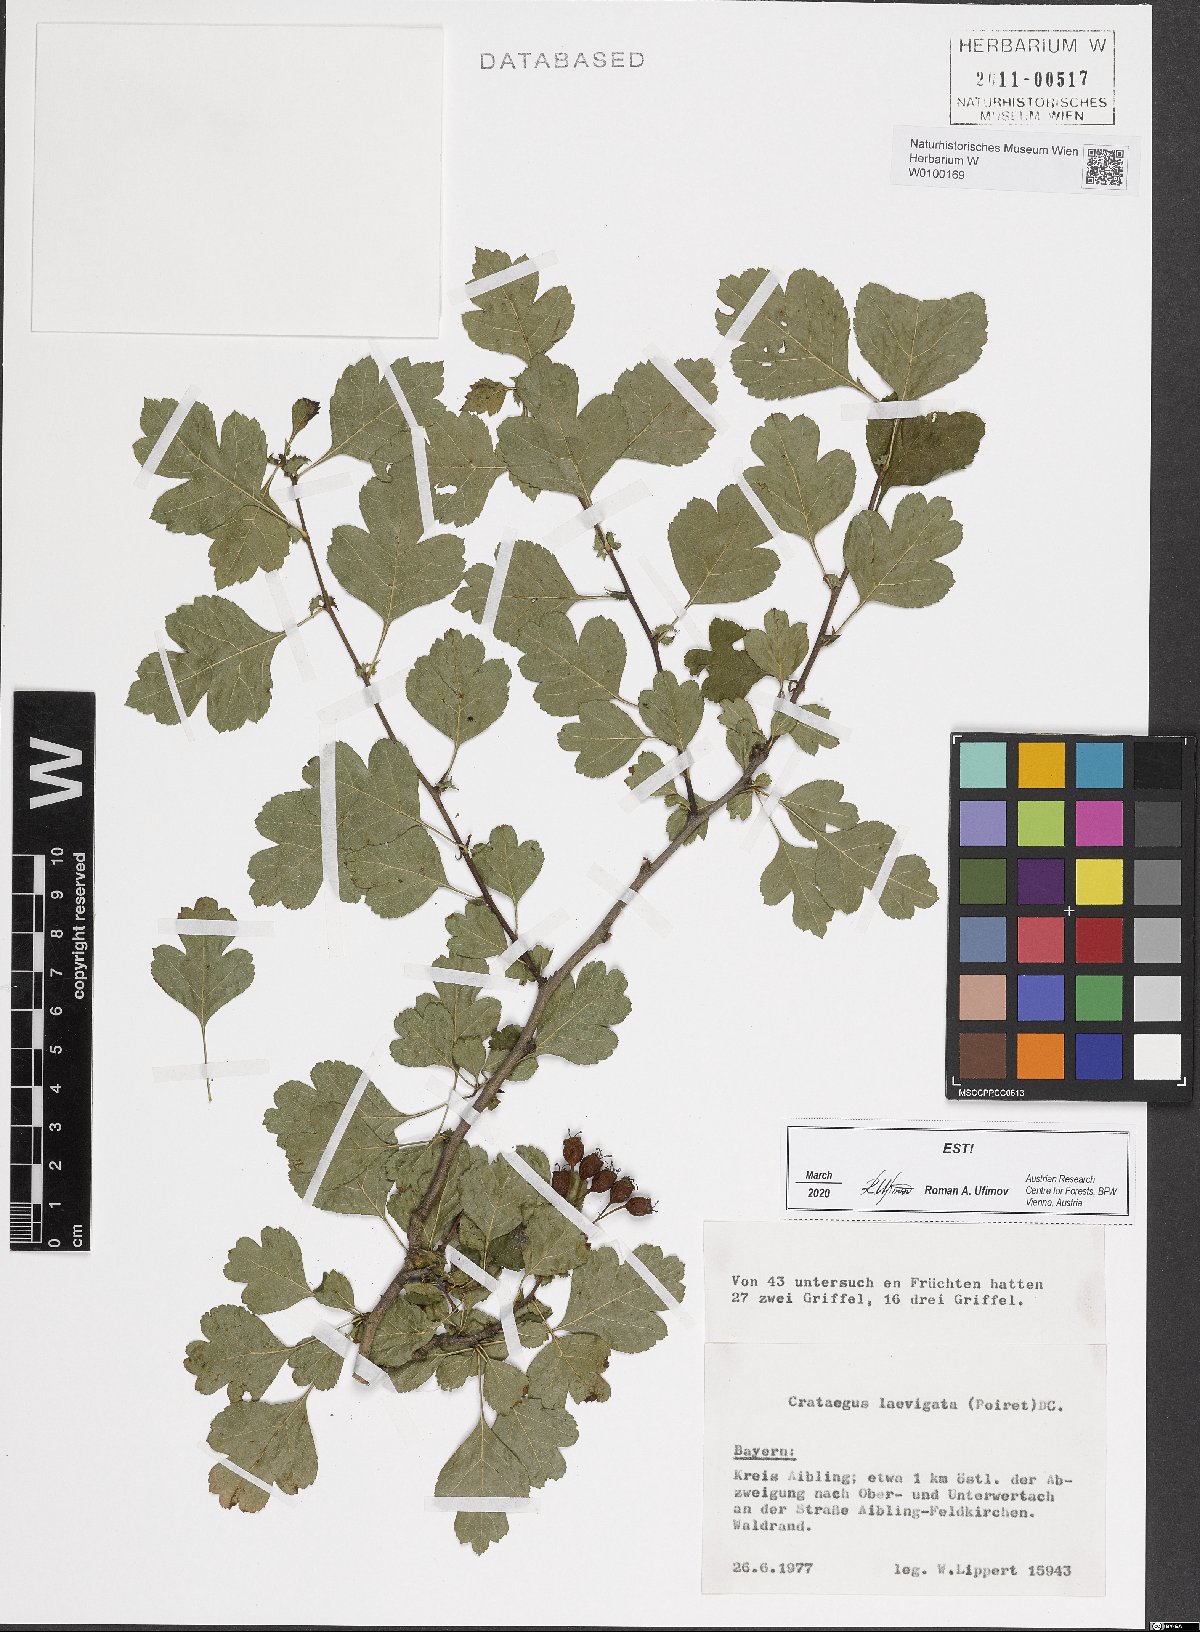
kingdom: Plantae
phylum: Tracheophyta
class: Magnoliopsida
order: Rosales
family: Rosaceae
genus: Crataegus
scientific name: Crataegus laevigata
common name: Midland hawthorn
